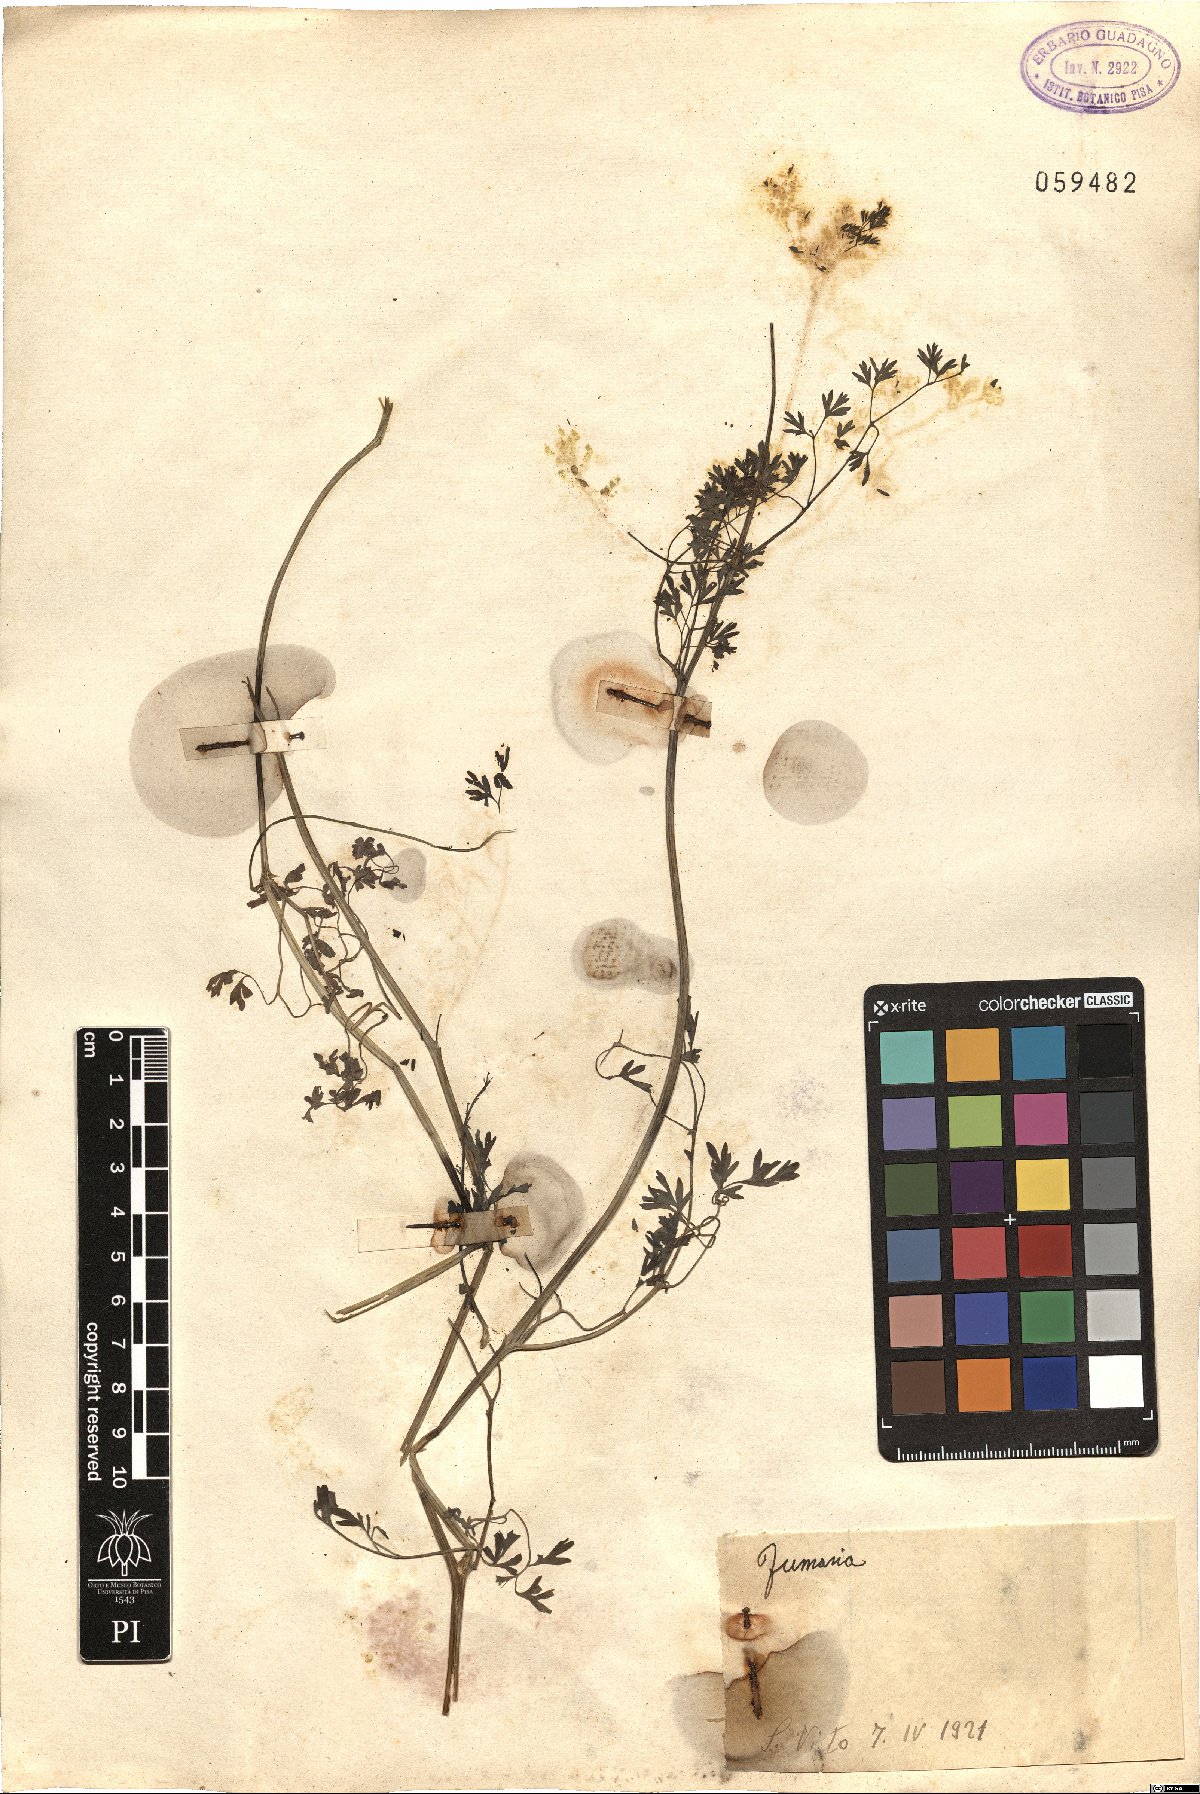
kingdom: Plantae
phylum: Tracheophyta
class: Magnoliopsida
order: Ranunculales
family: Papaveraceae
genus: Fumaria
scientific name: Fumaria
